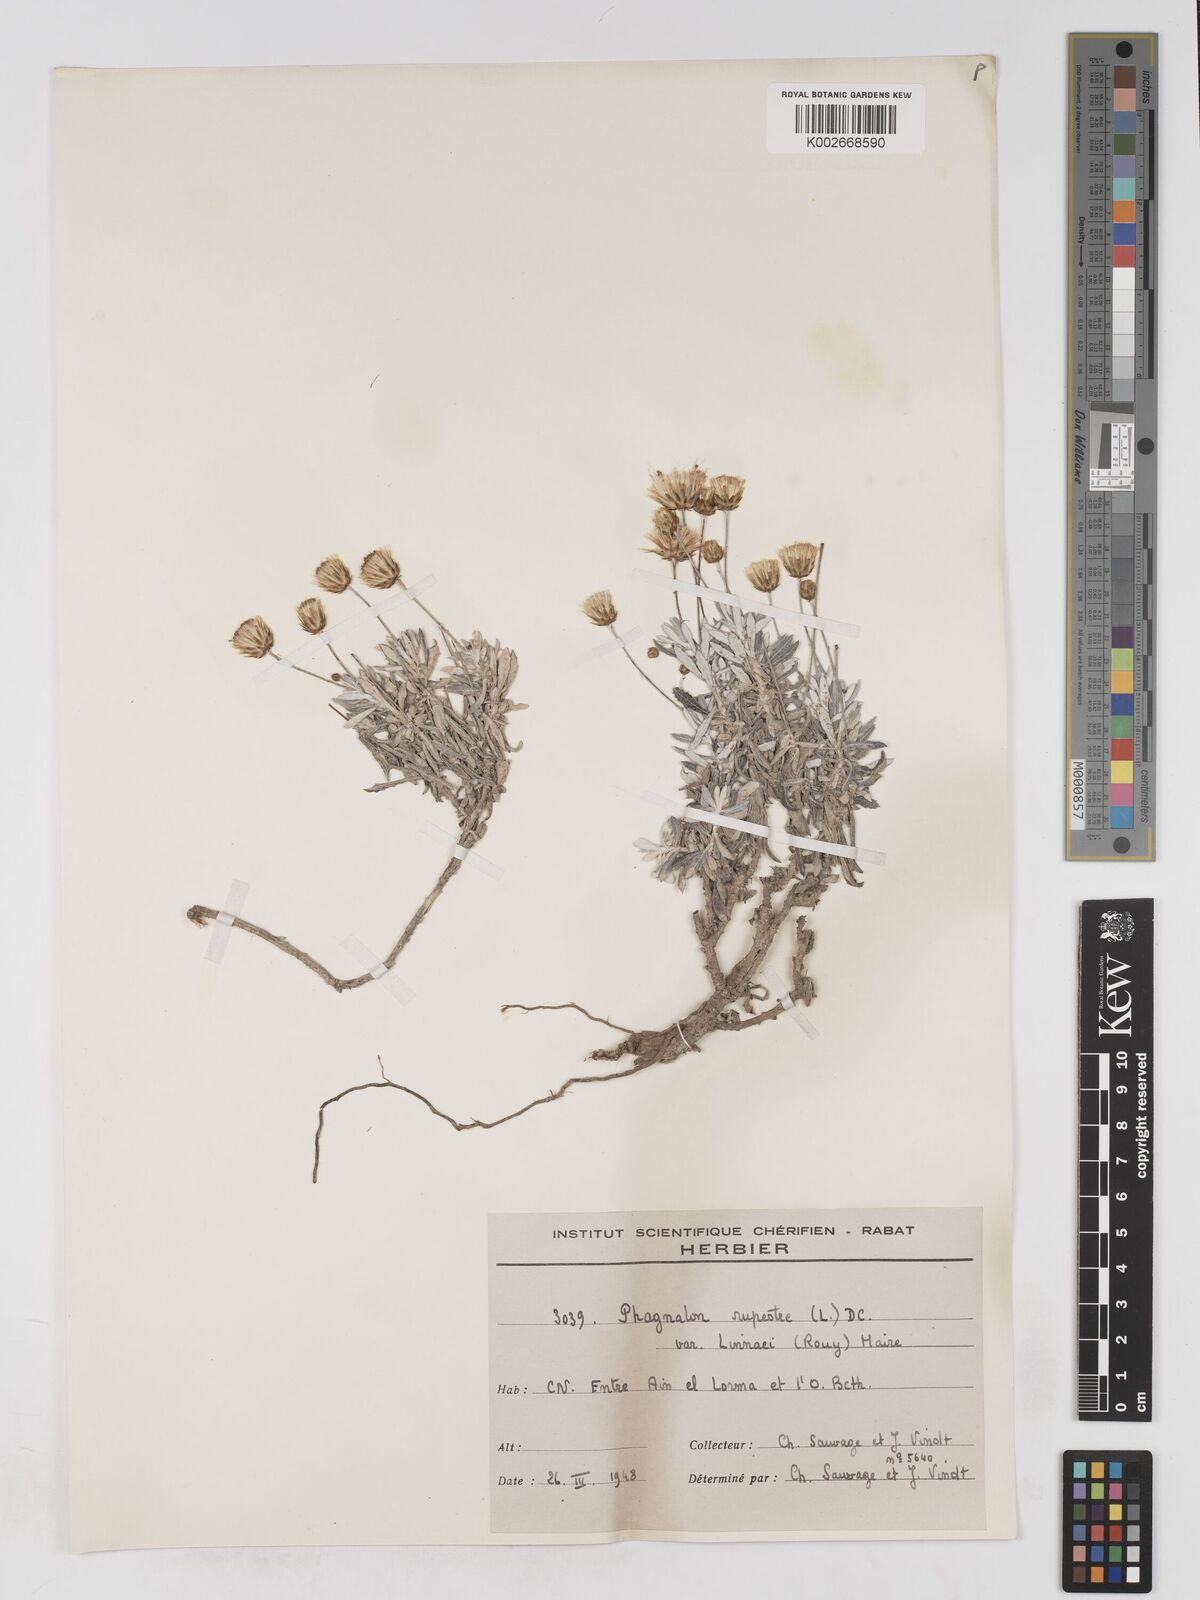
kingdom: Plantae
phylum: Tracheophyta
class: Magnoliopsida
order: Asterales
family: Asteraceae
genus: Phagnalon
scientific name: Phagnalon rupestre
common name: Rock phagnalon
